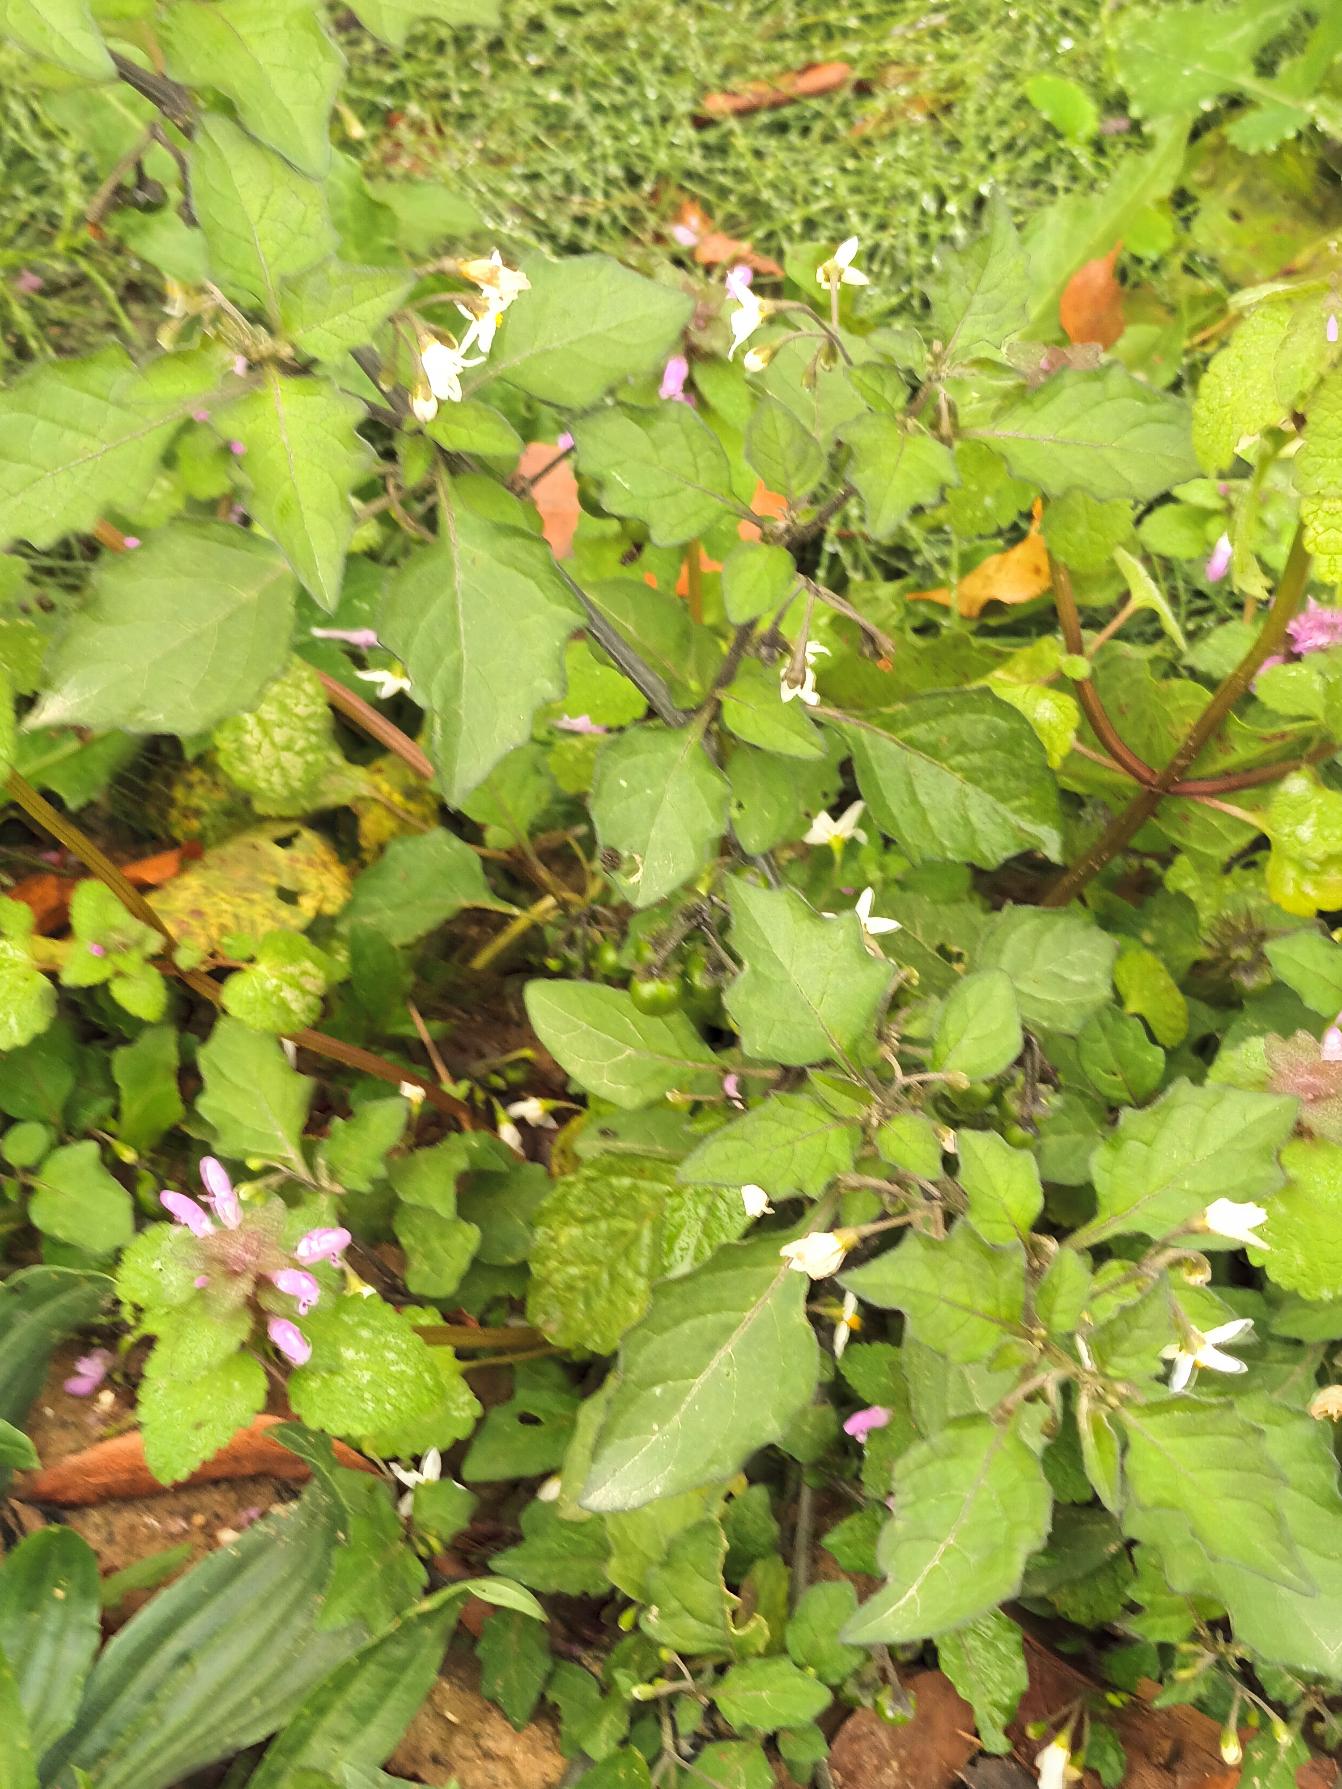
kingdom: Plantae
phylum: Tracheophyta
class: Magnoliopsida
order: Solanales
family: Solanaceae
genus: Solanum
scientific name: Solanum nigrum
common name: Sort natskygge
